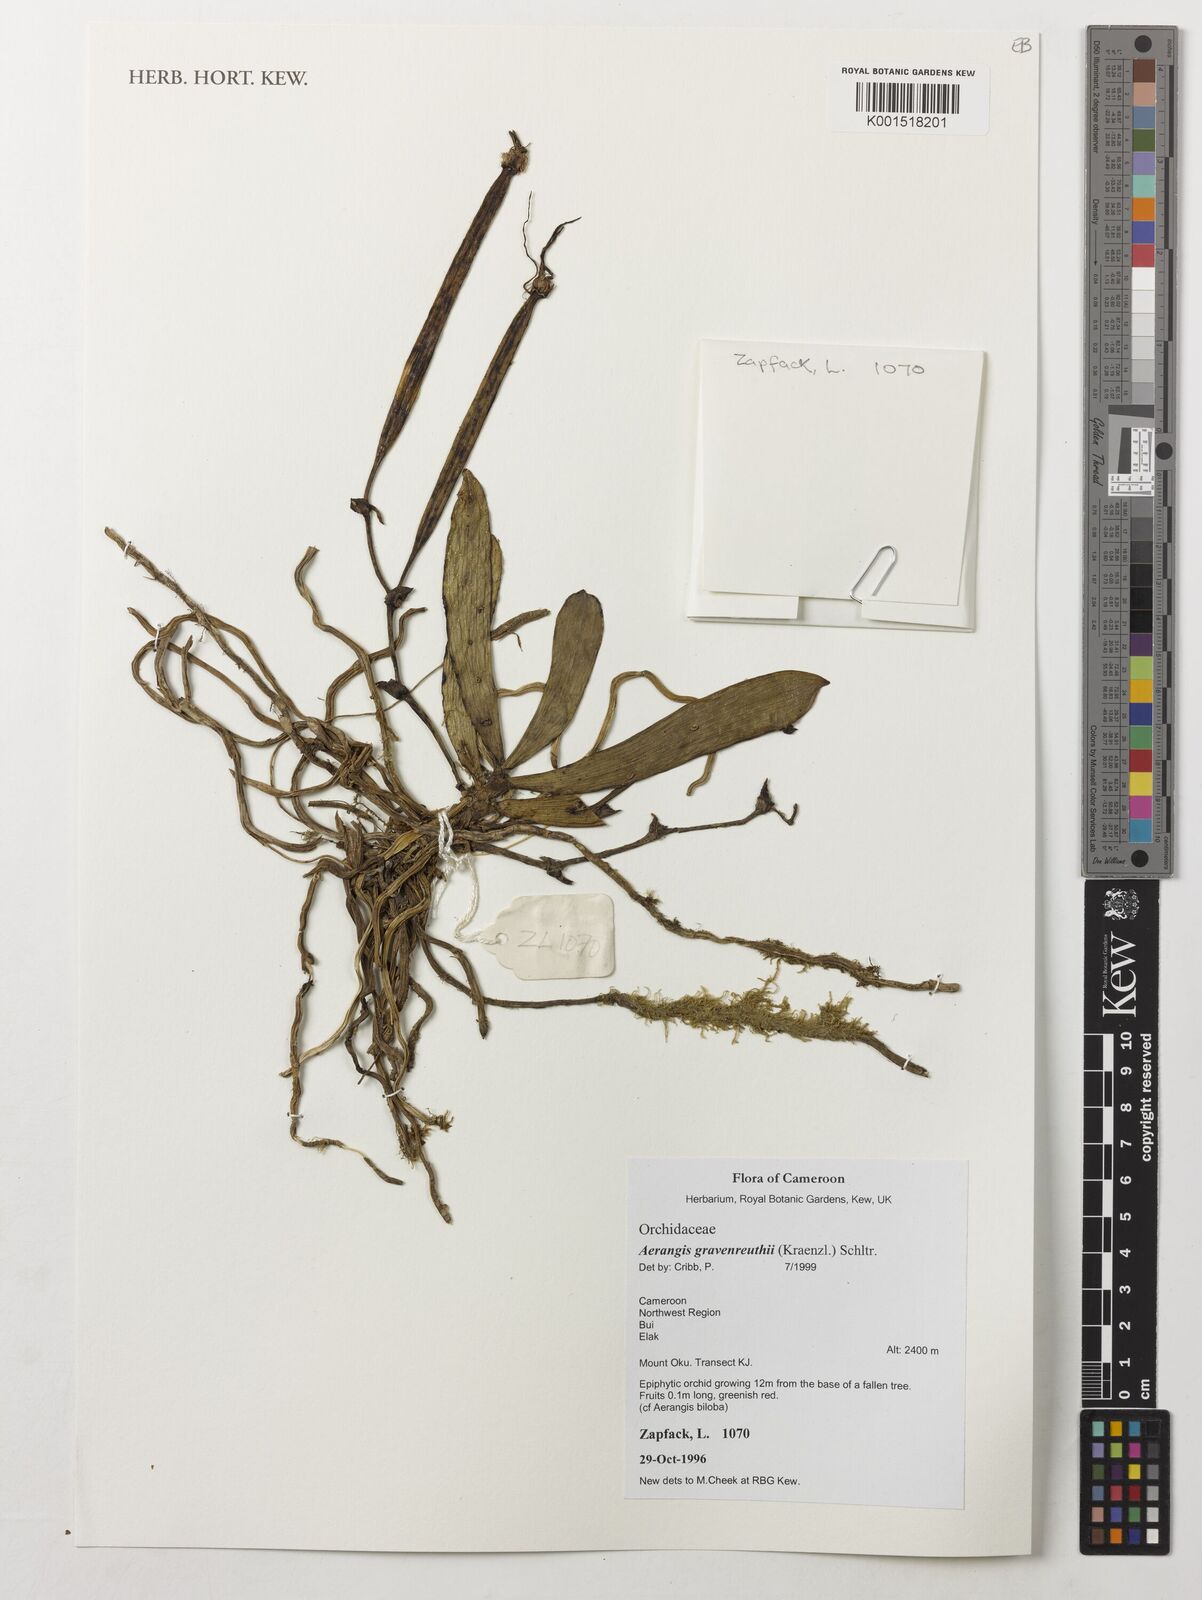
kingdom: Plantae
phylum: Tracheophyta
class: Liliopsida
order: Asparagales
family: Orchidaceae
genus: Aerangis
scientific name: Aerangis gravenreuthii
